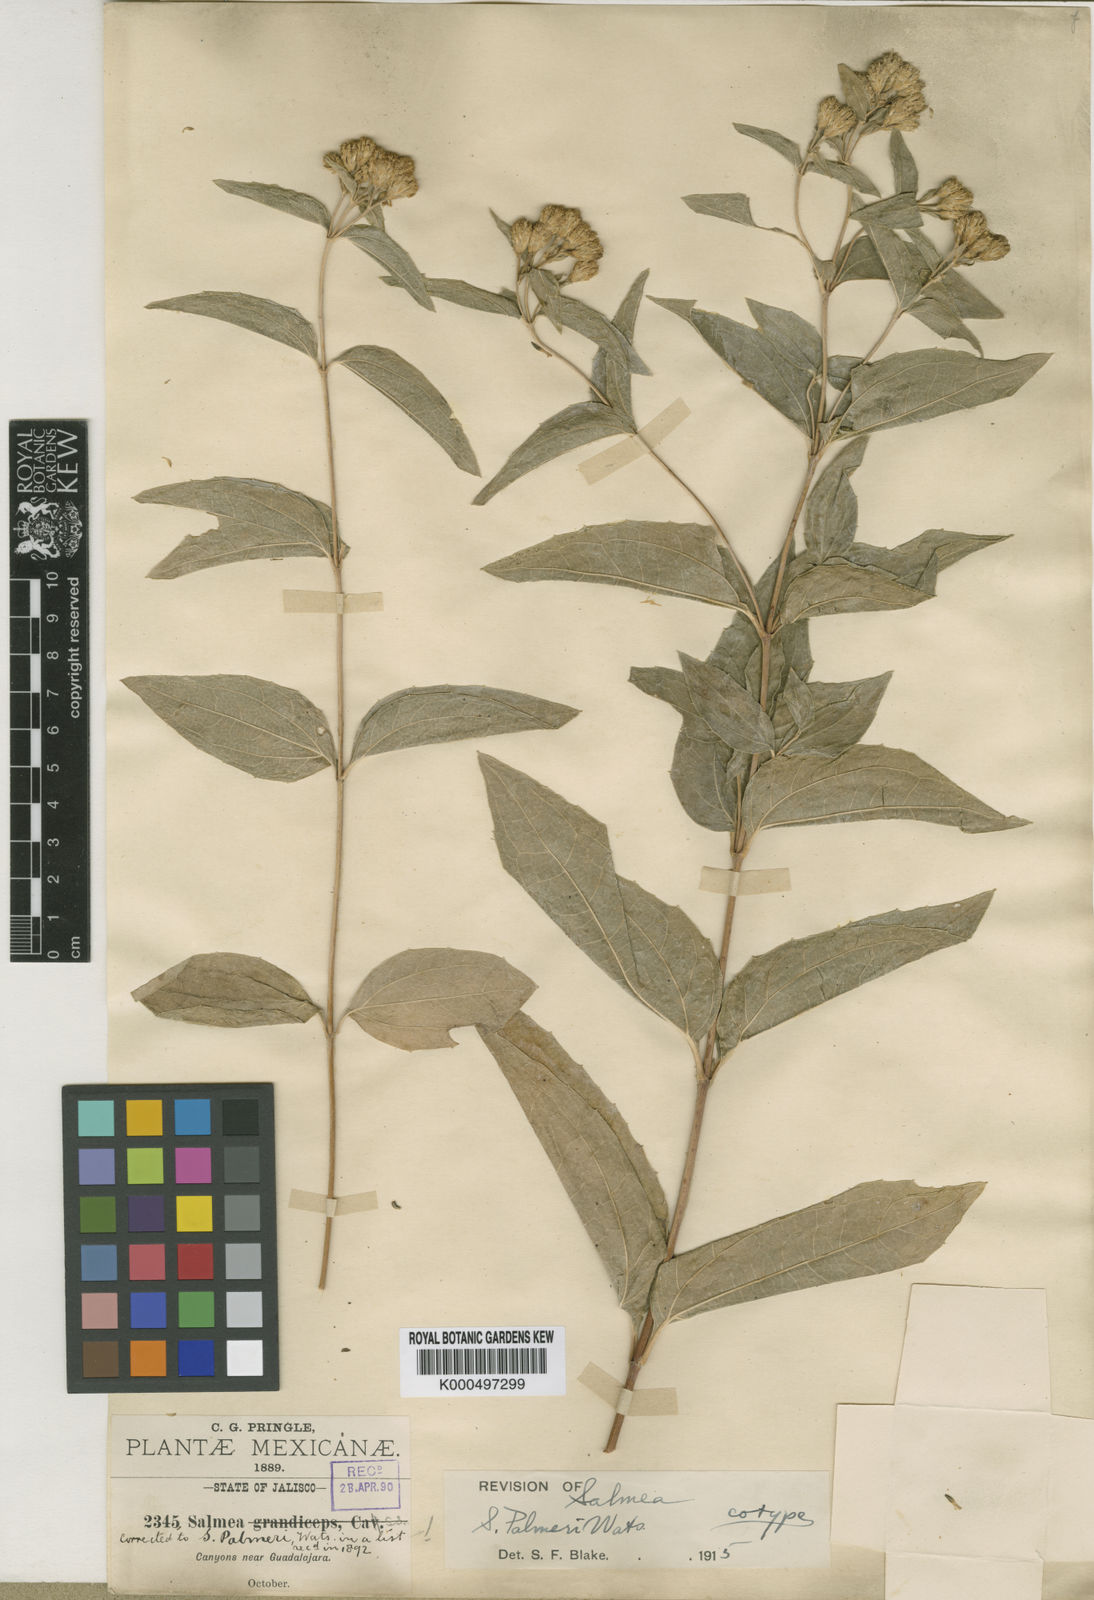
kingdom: Plantae
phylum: Tracheophyta
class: Magnoliopsida
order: Asterales
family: Asteraceae
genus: Salmea
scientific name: Salmea palmeri
